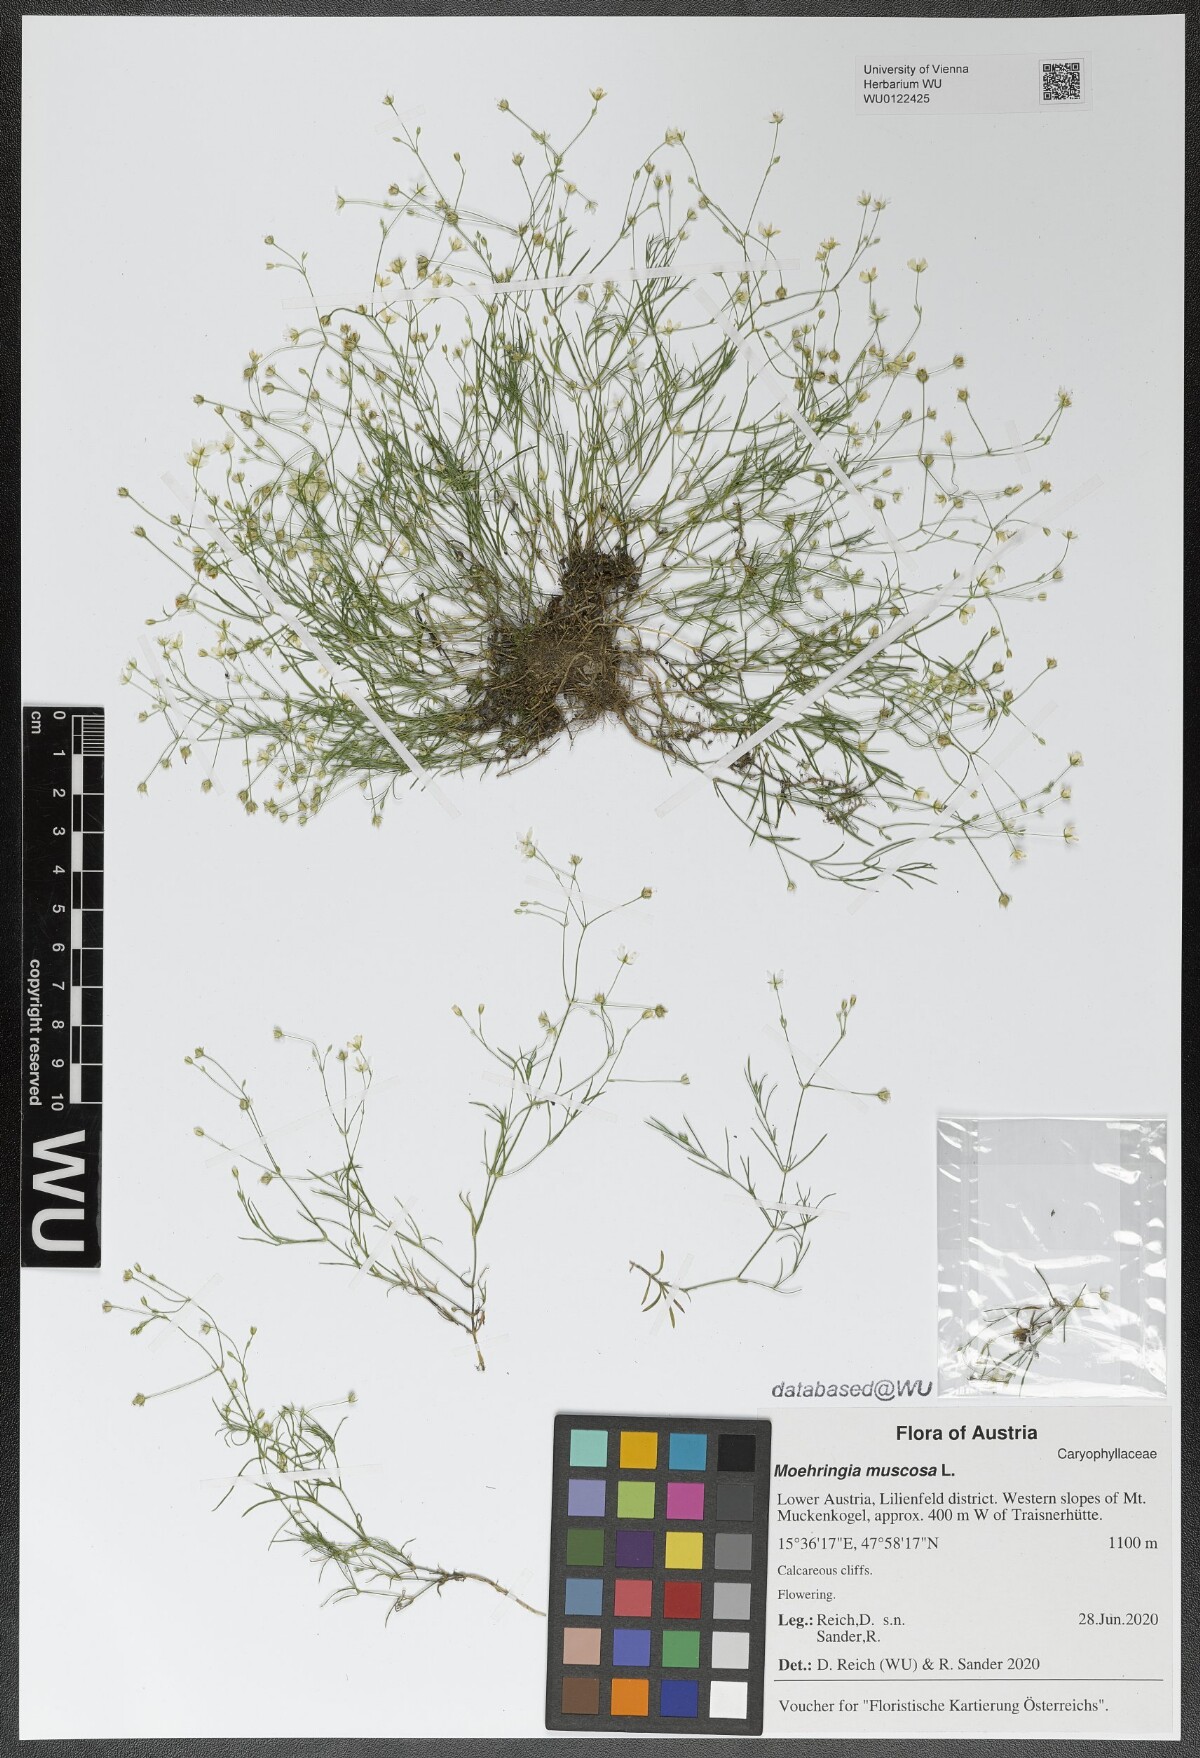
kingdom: Plantae
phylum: Tracheophyta
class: Magnoliopsida
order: Caryophyllales
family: Caryophyllaceae
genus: Moehringia
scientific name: Moehringia muscosa
